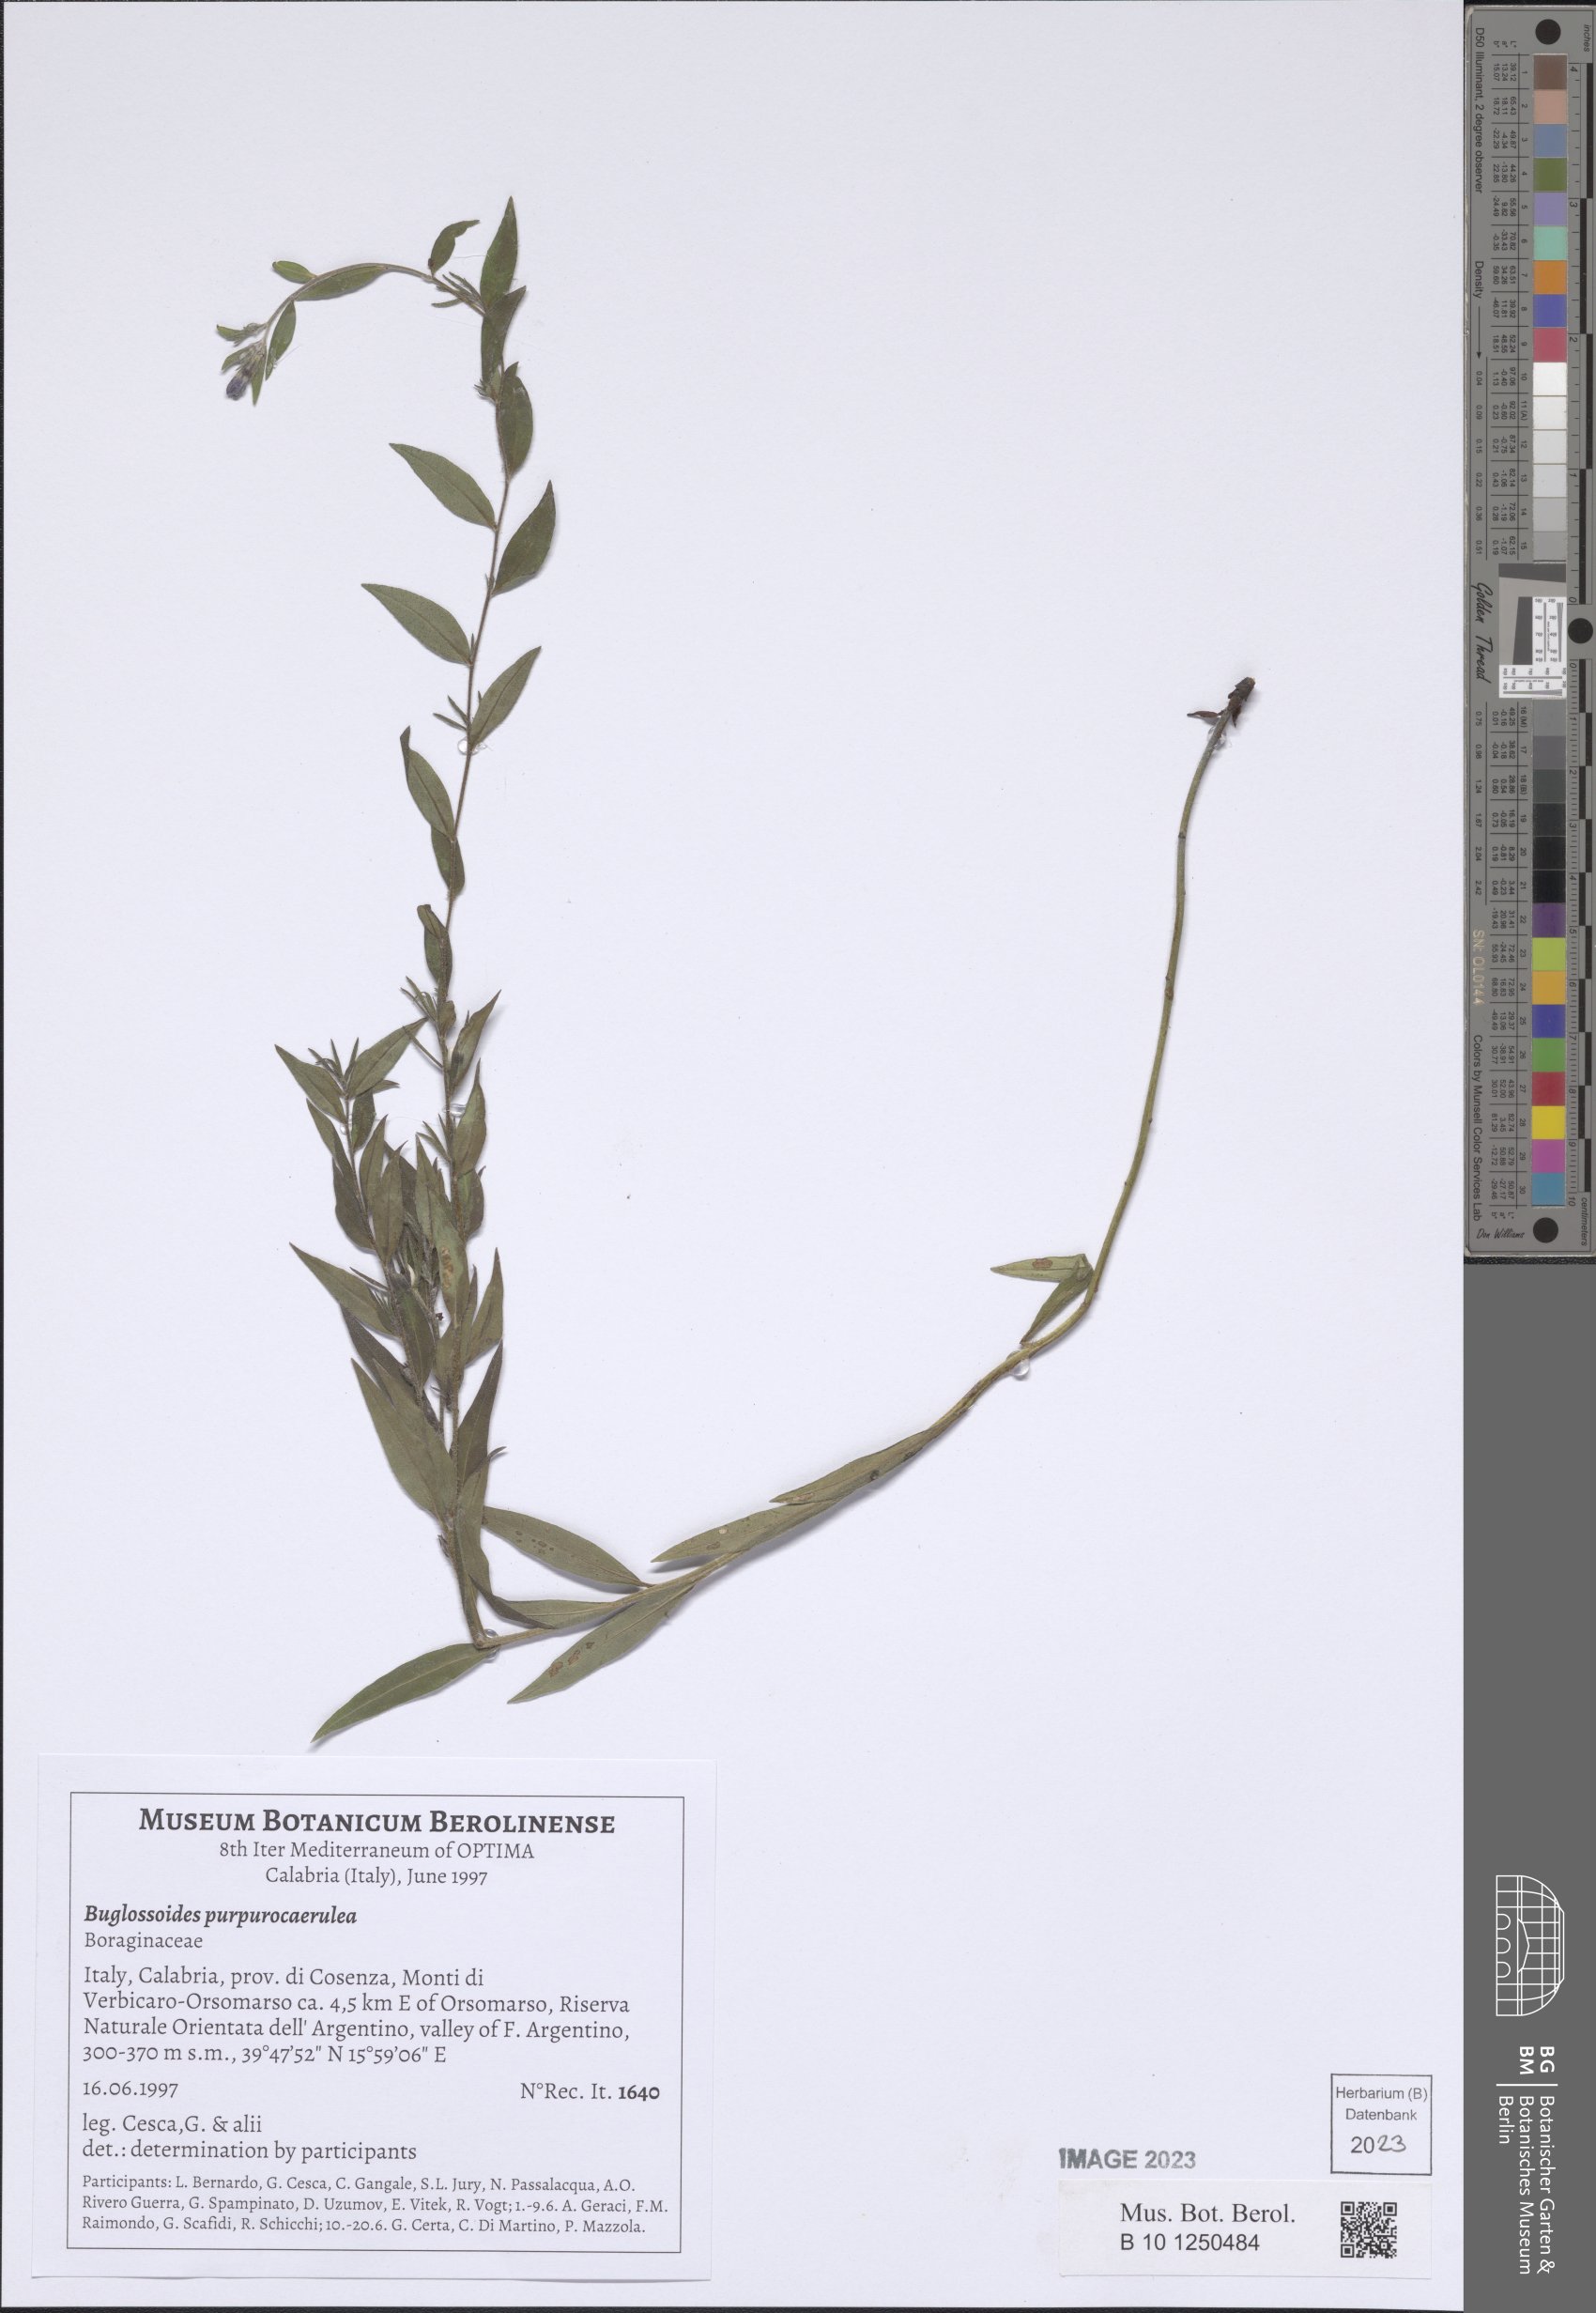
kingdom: Plantae
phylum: Tracheophyta
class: Magnoliopsida
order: Boraginales
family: Boraginaceae
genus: Aegonychon
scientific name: Aegonychon purpurocaeruleum
